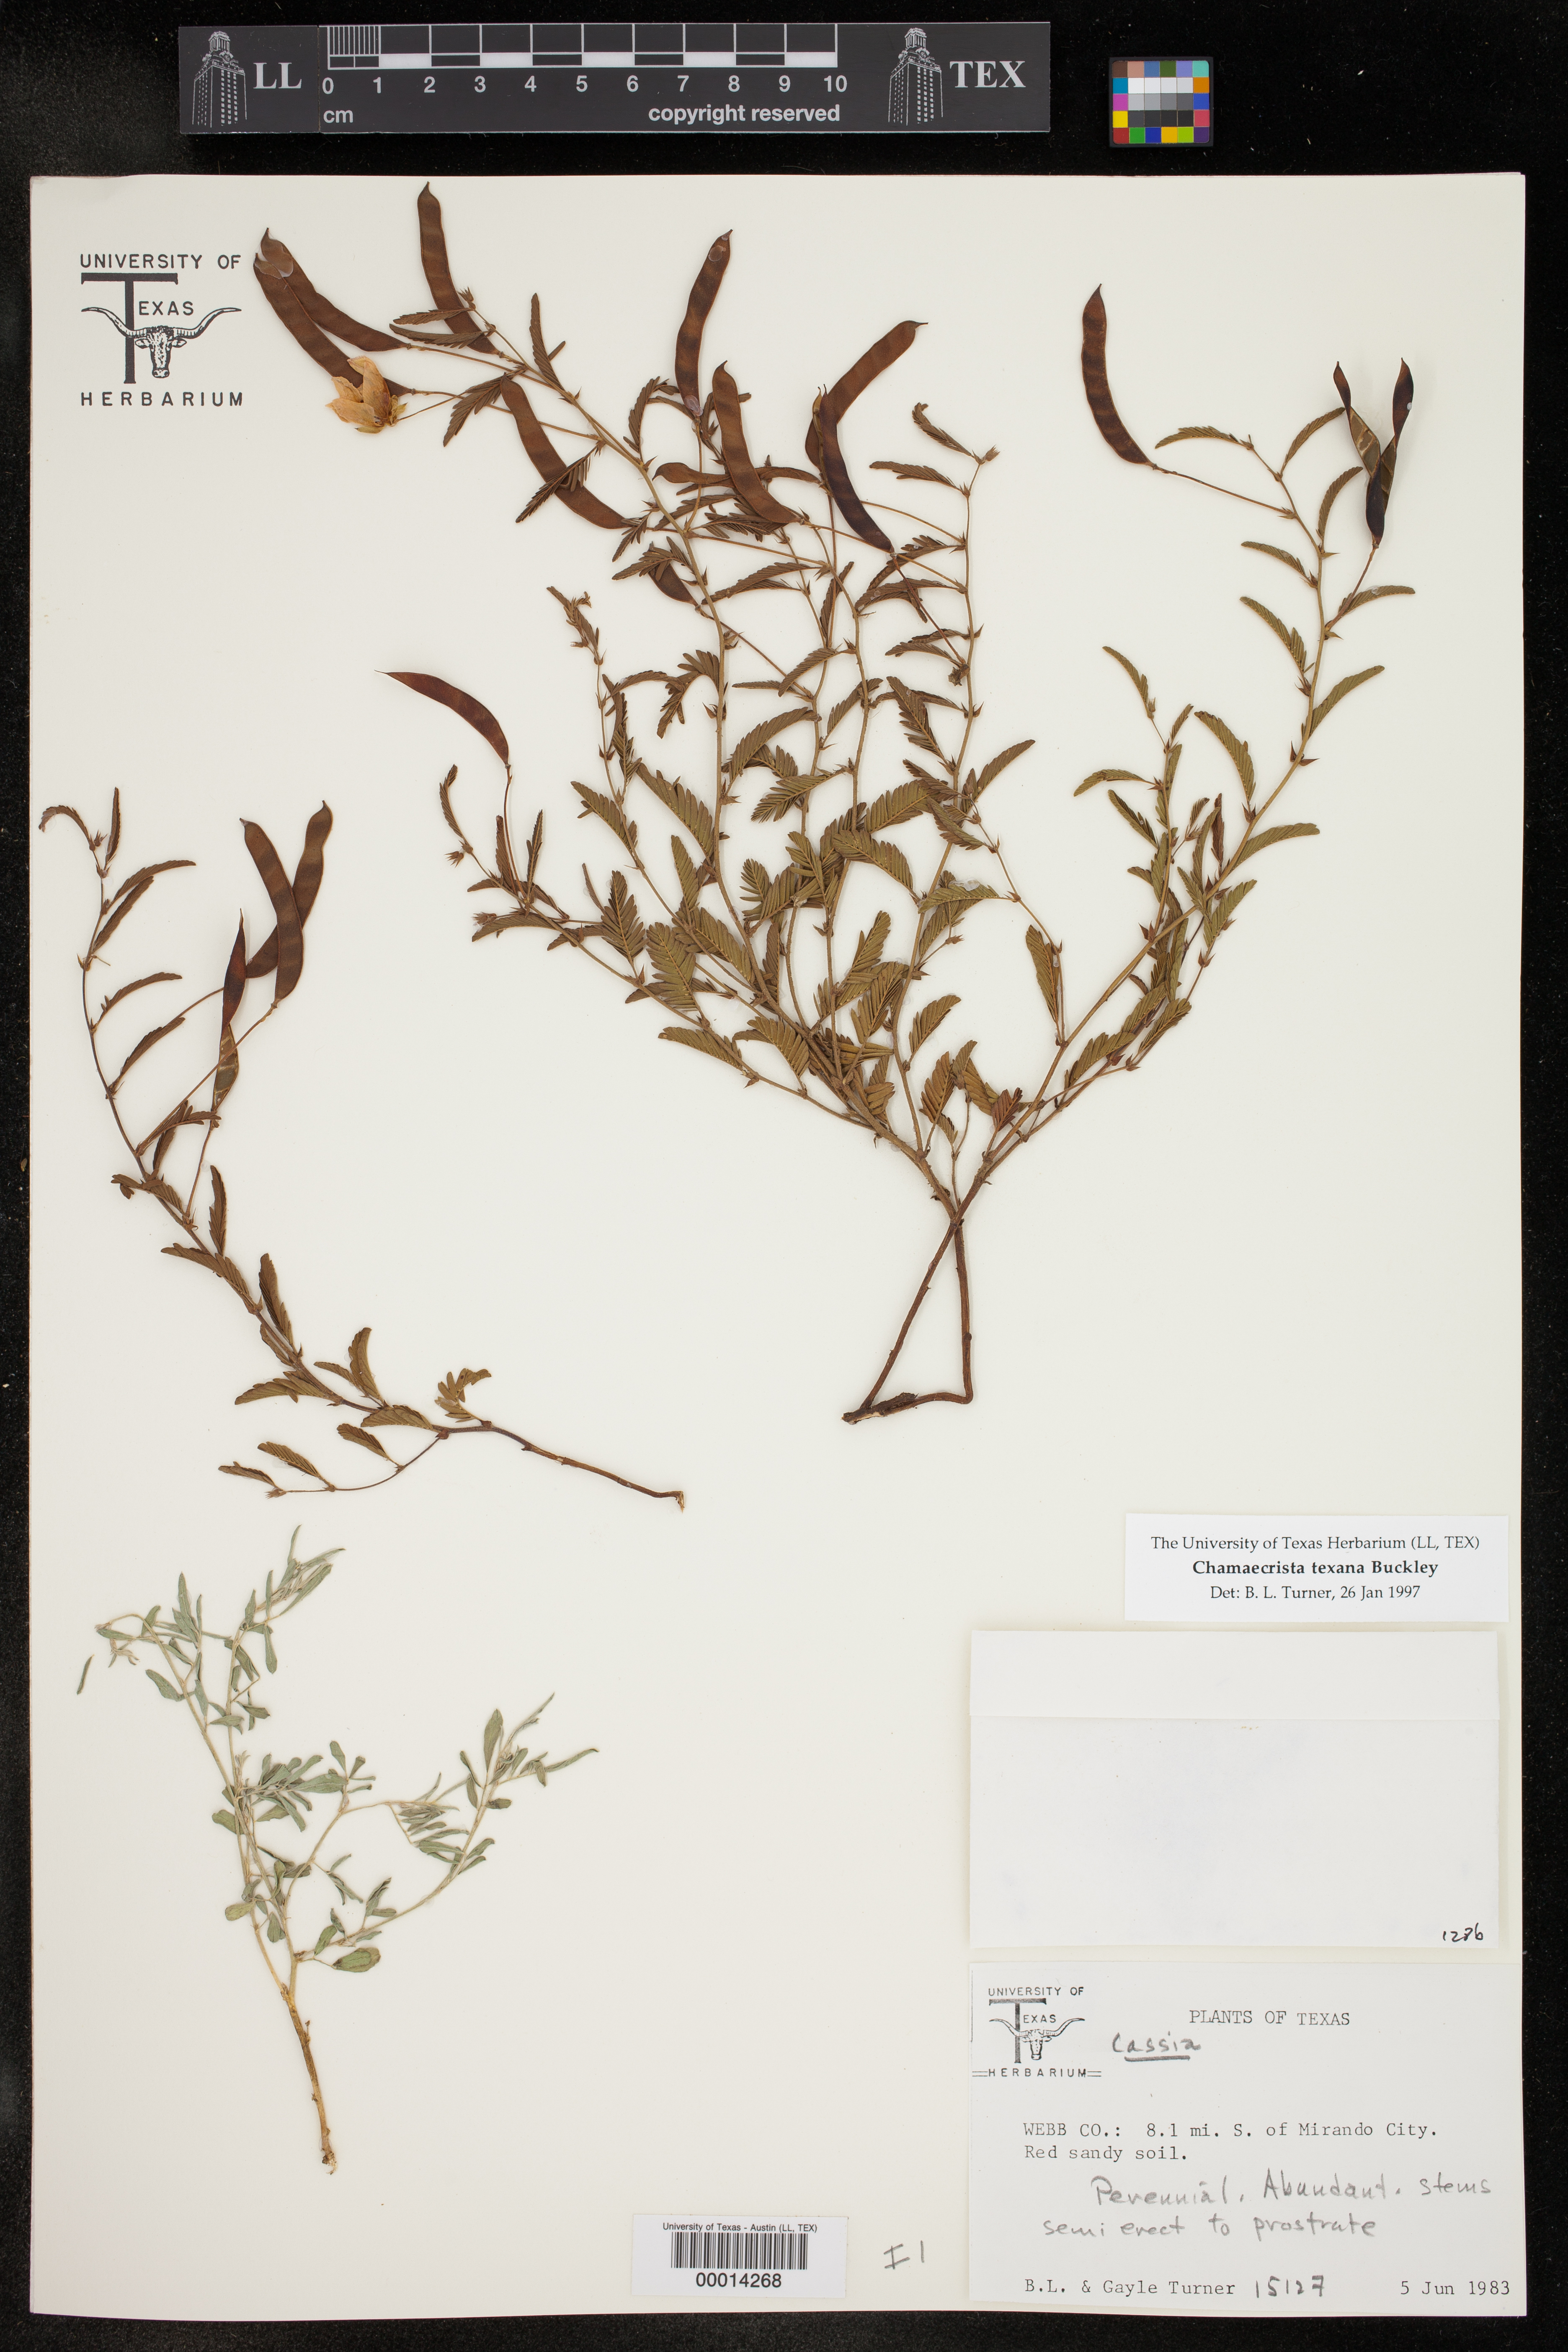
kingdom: Plantae
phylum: Tracheophyta
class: Magnoliopsida
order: Fabales
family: Fabaceae
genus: Chamaecrista
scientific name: Chamaecrista flexuosa
